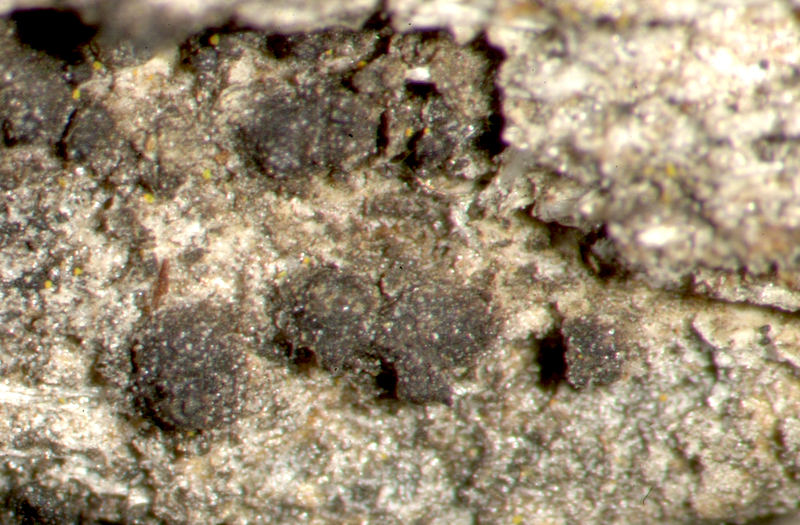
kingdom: Fungi
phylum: Ascomycota
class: Lecanoromycetes
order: Teloschistales
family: Teloschistaceae
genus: Flavoplaca
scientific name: Flavoplaca citrina
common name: Mealy firedot lichen
